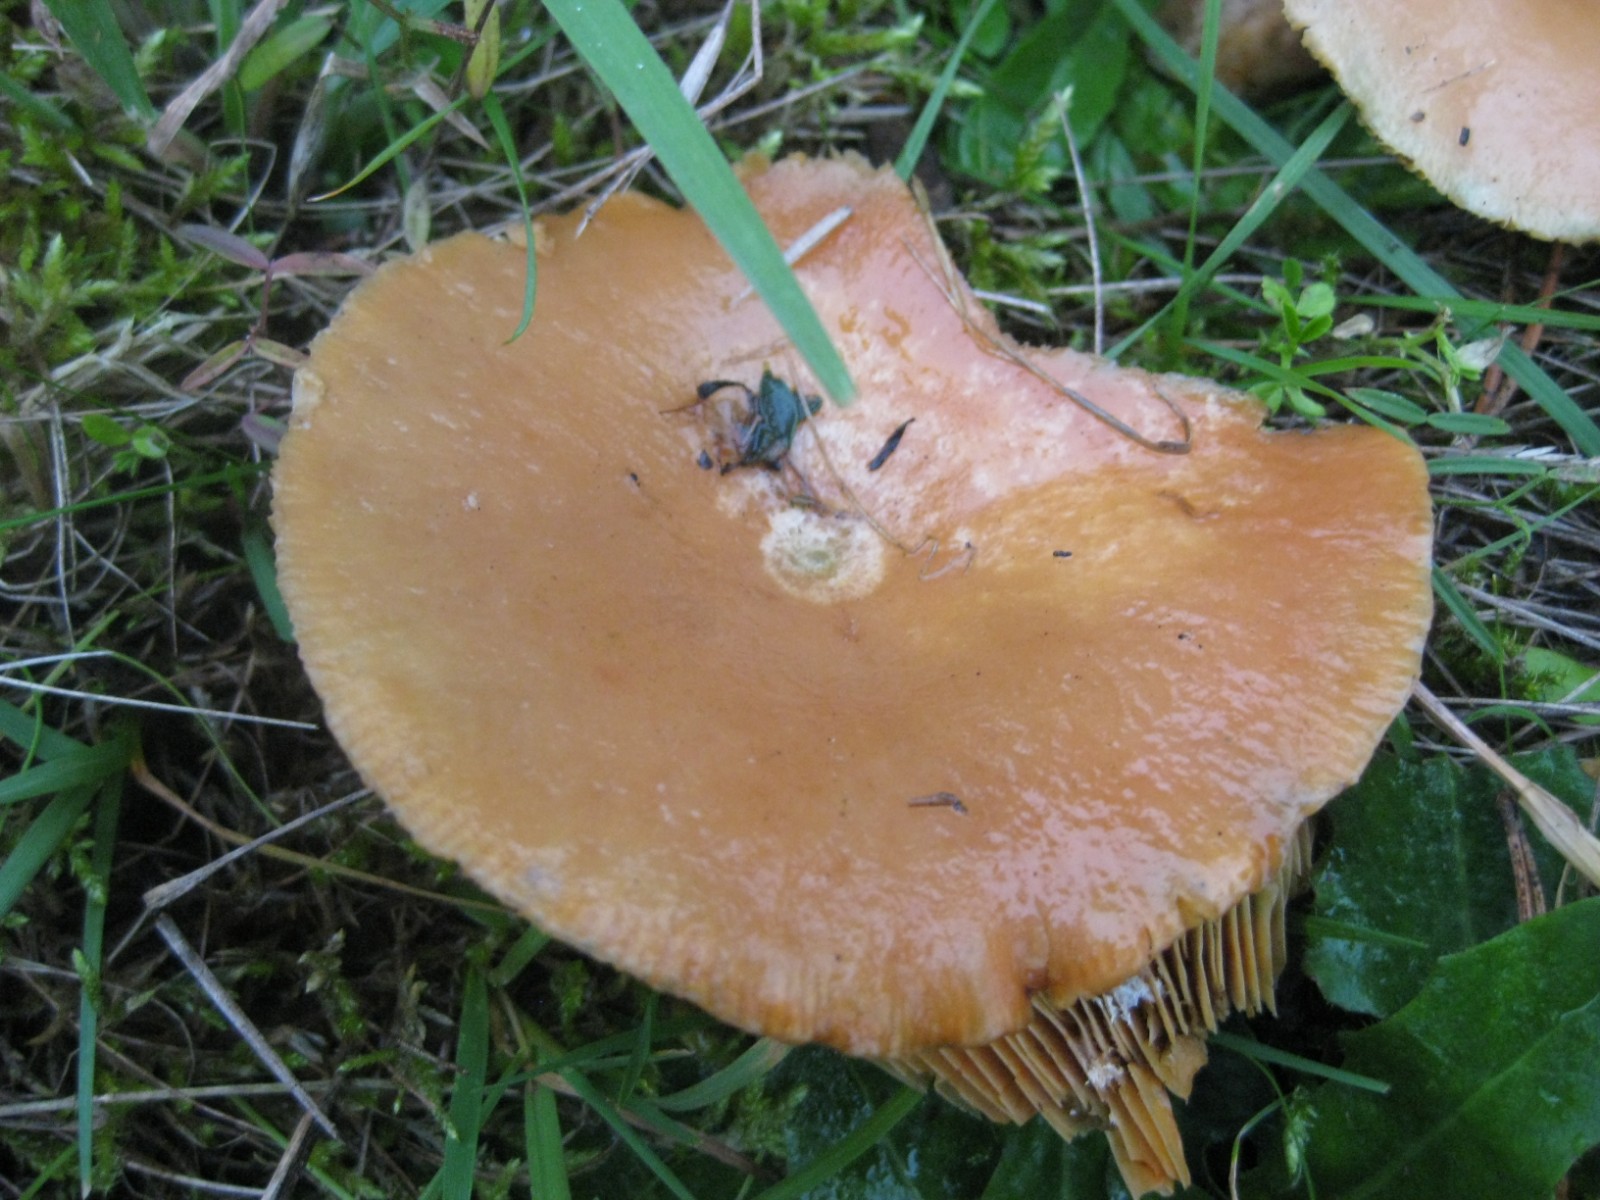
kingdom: Fungi
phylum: Basidiomycota
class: Agaricomycetes
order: Russulales
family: Russulaceae
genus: Lactarius
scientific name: Lactarius deliciosus
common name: velsmagende mælkehat
